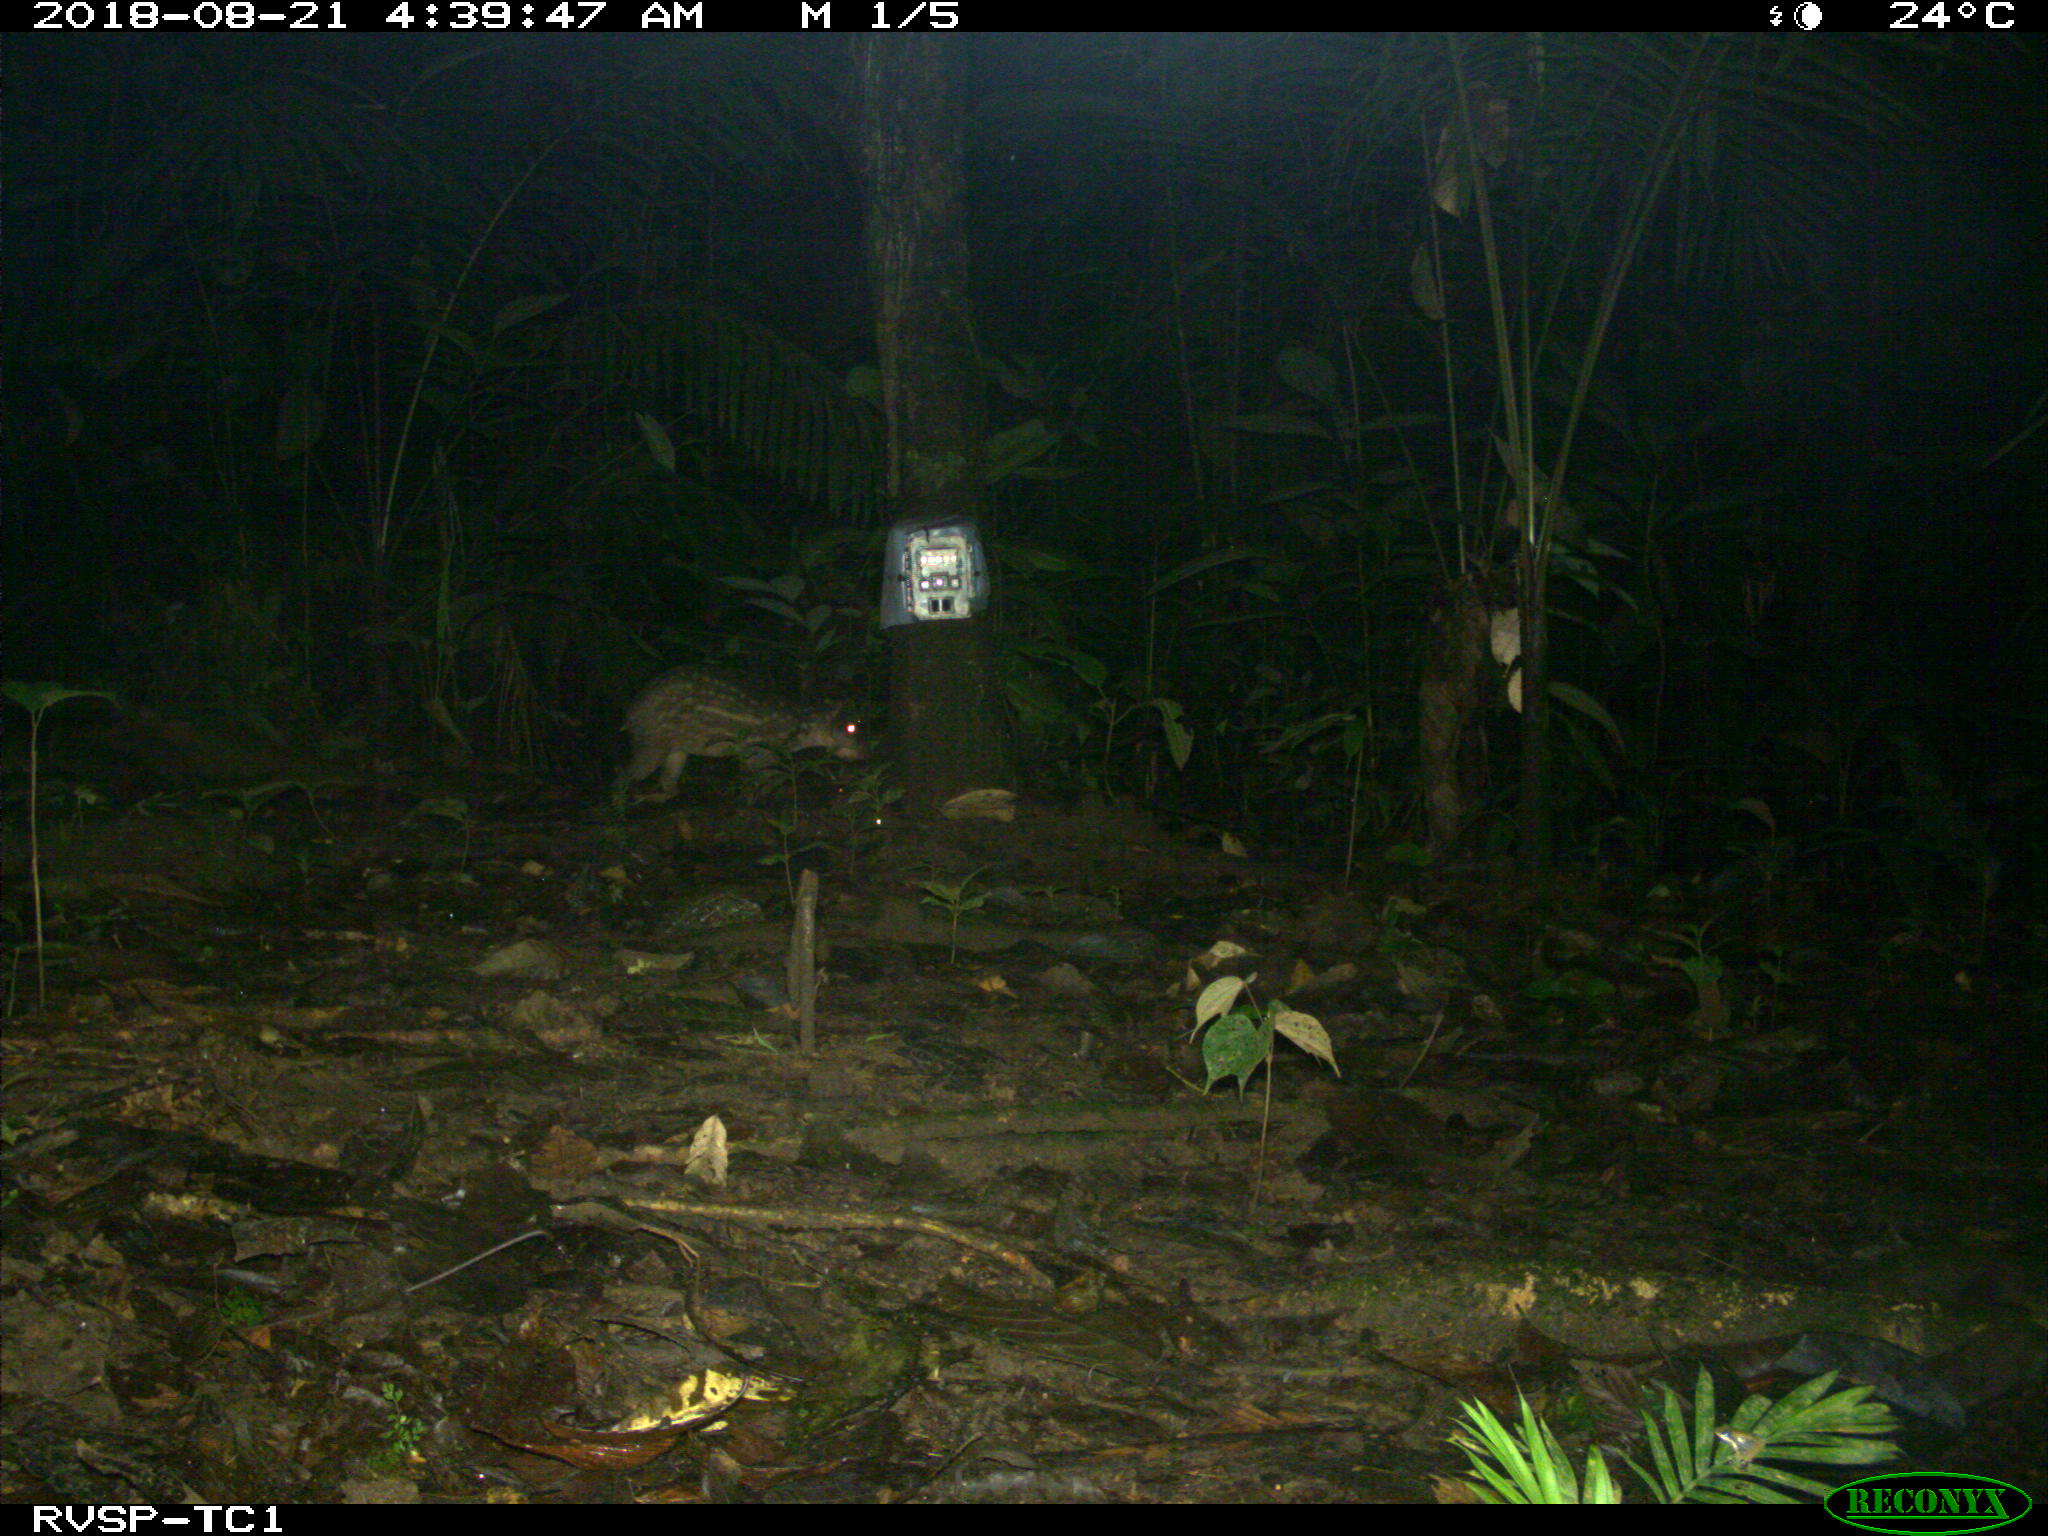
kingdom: Animalia
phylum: Chordata
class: Mammalia
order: Rodentia
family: Cuniculidae
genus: Cuniculus
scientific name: Cuniculus paca
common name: Lowland paca
